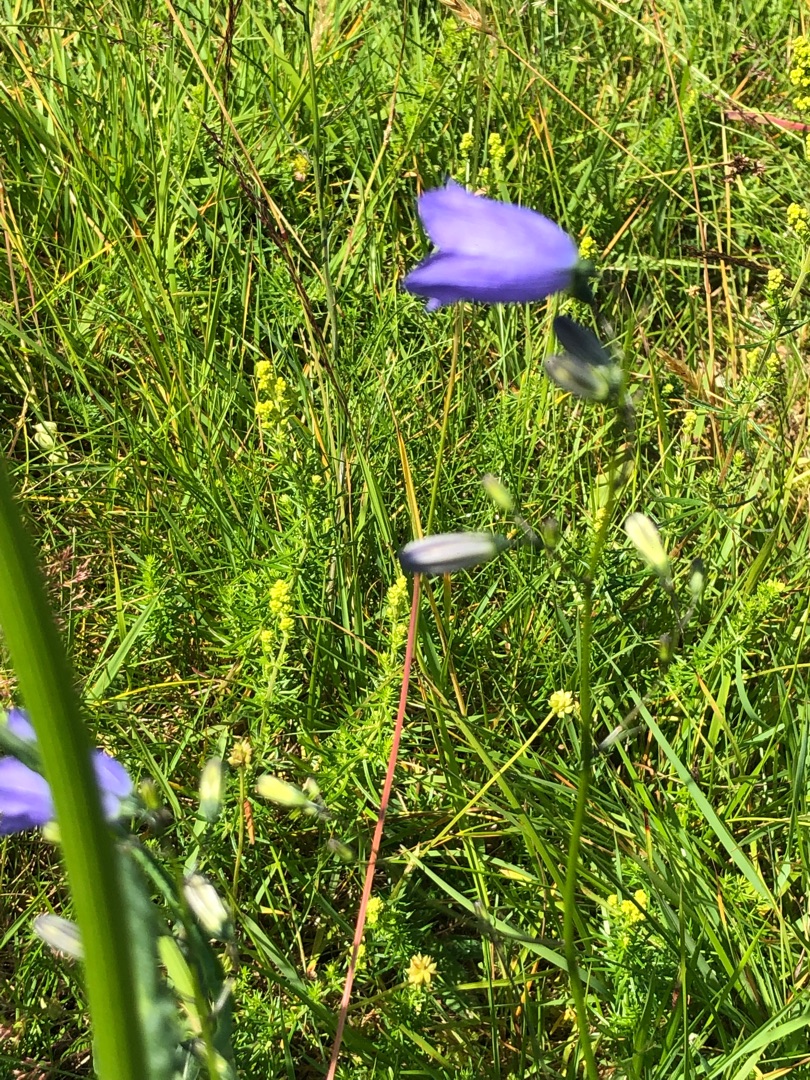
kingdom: Plantae
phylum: Tracheophyta
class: Magnoliopsida
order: Asterales
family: Campanulaceae
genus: Campanula
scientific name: Campanula rotundifolia
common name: Liden klokke
